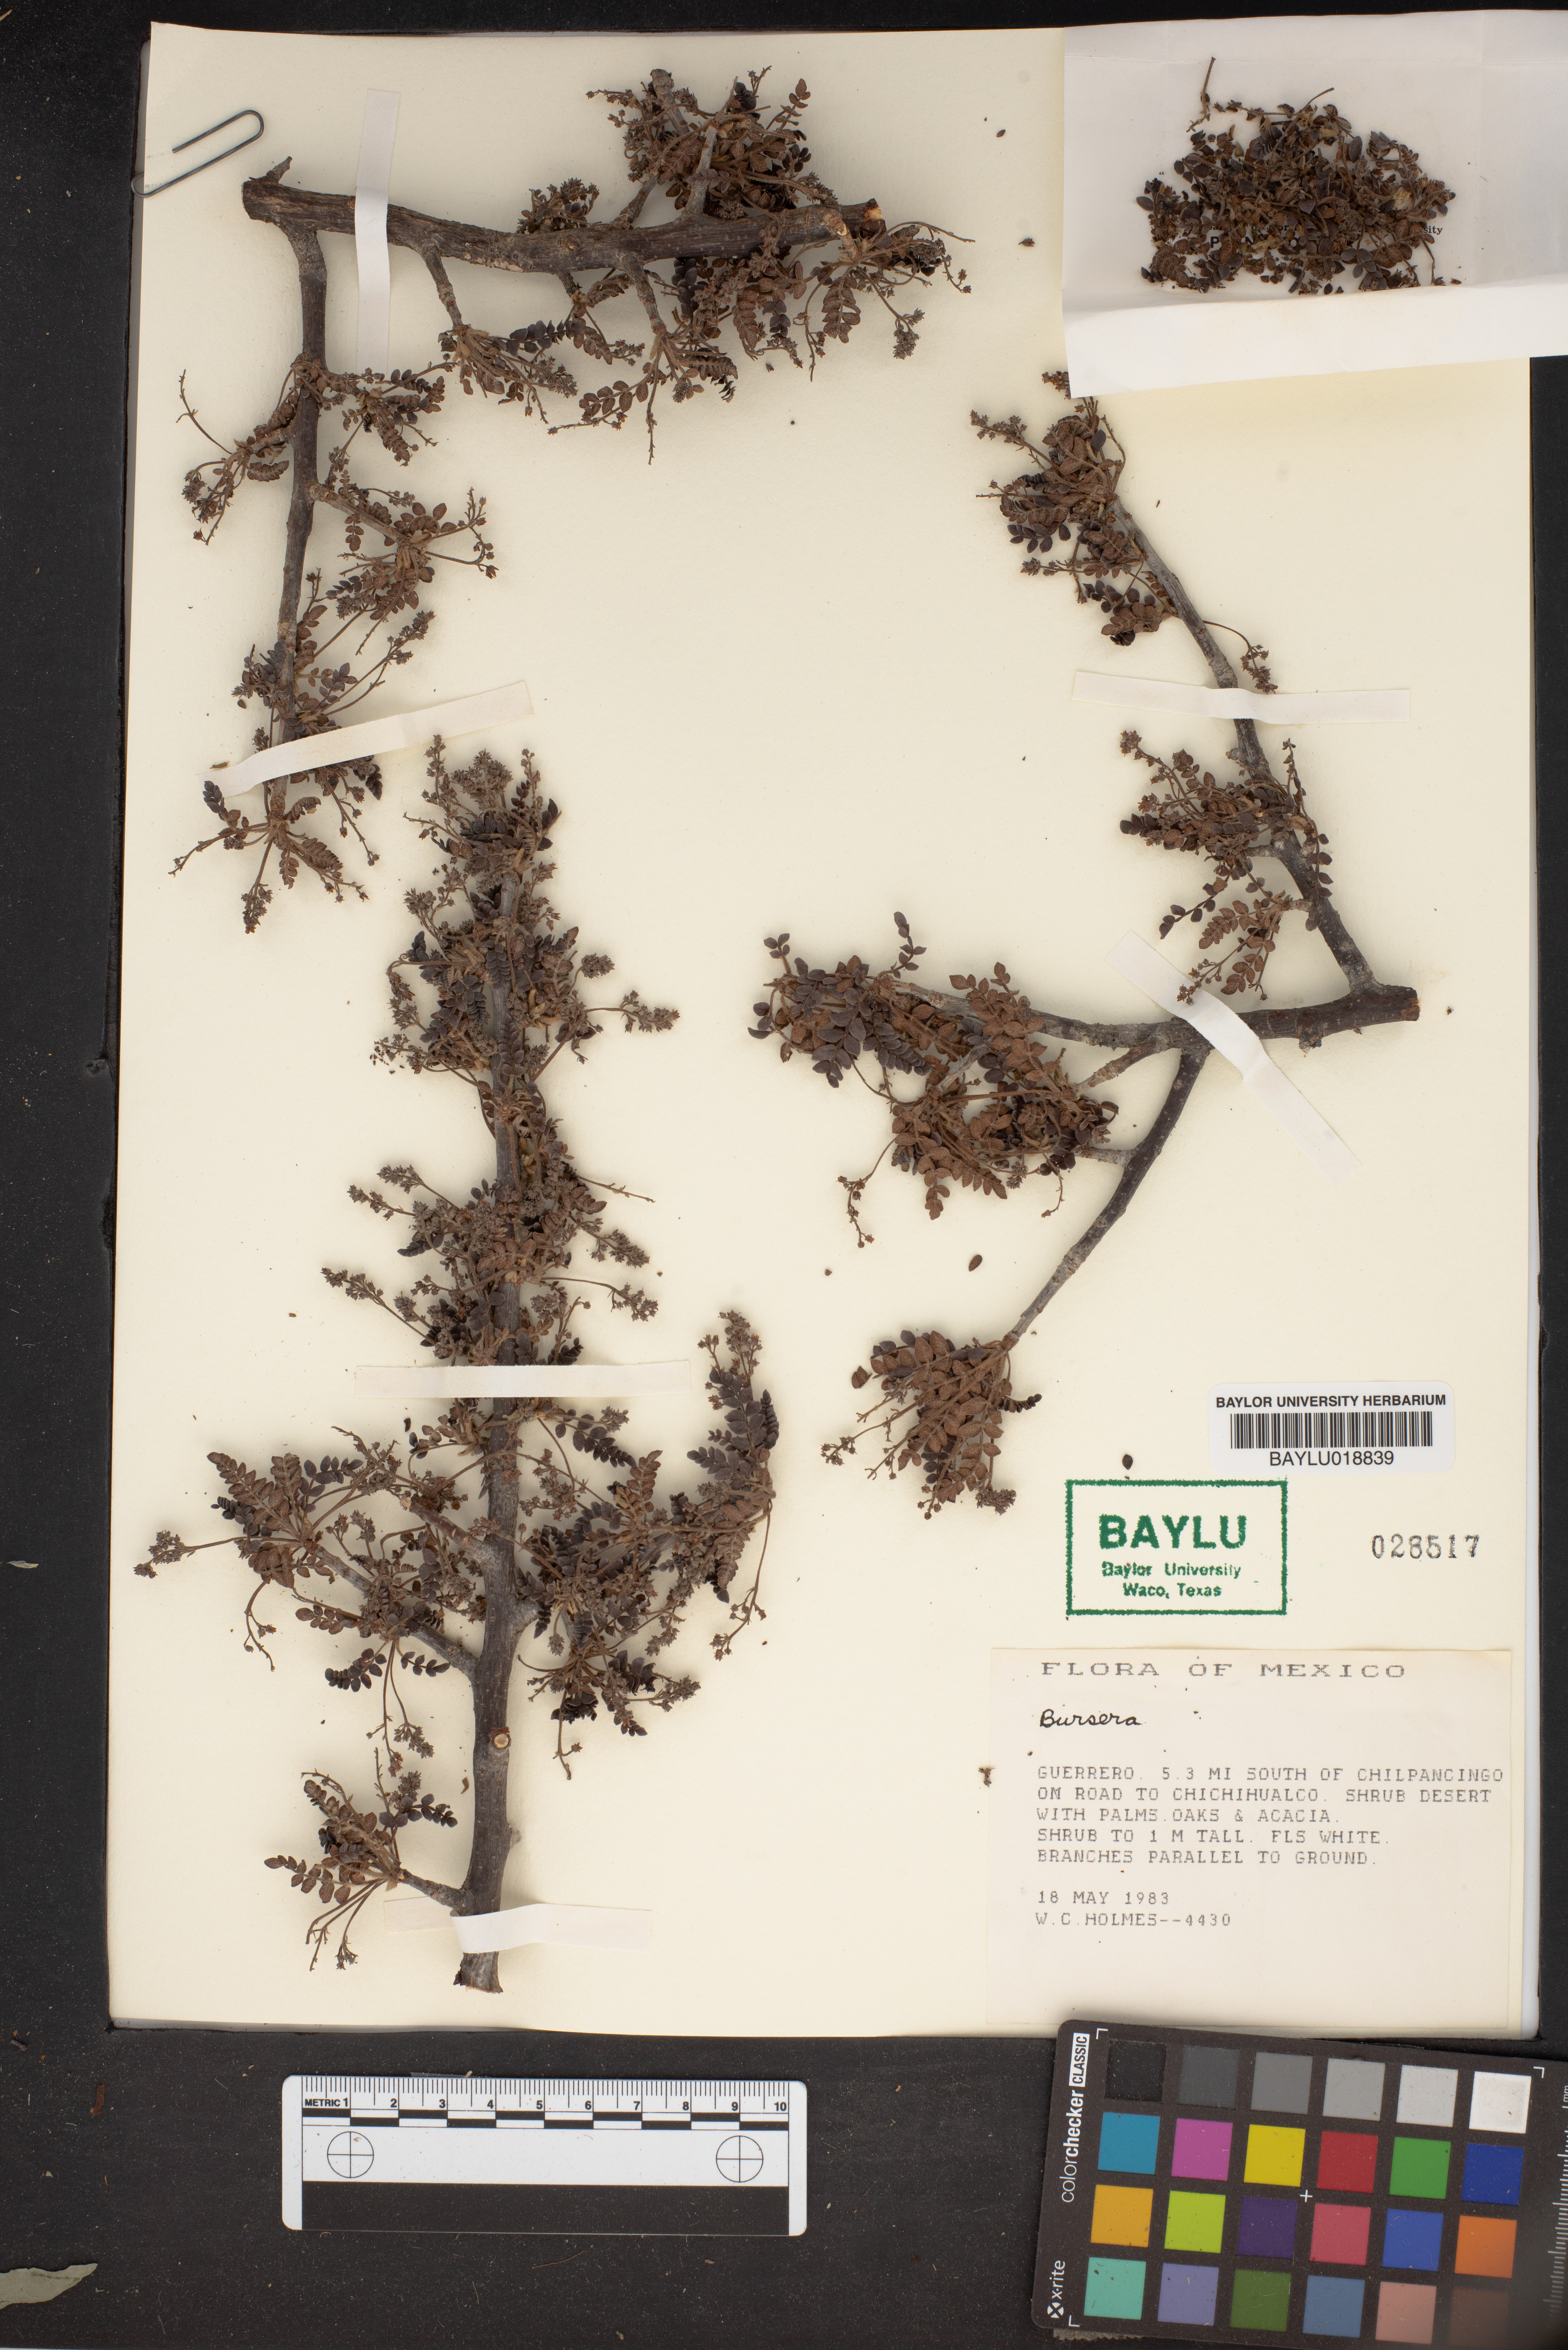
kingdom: Plantae
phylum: Tracheophyta
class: Magnoliopsida
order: Sapindales
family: Burseraceae
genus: Bursera
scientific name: Bursera
